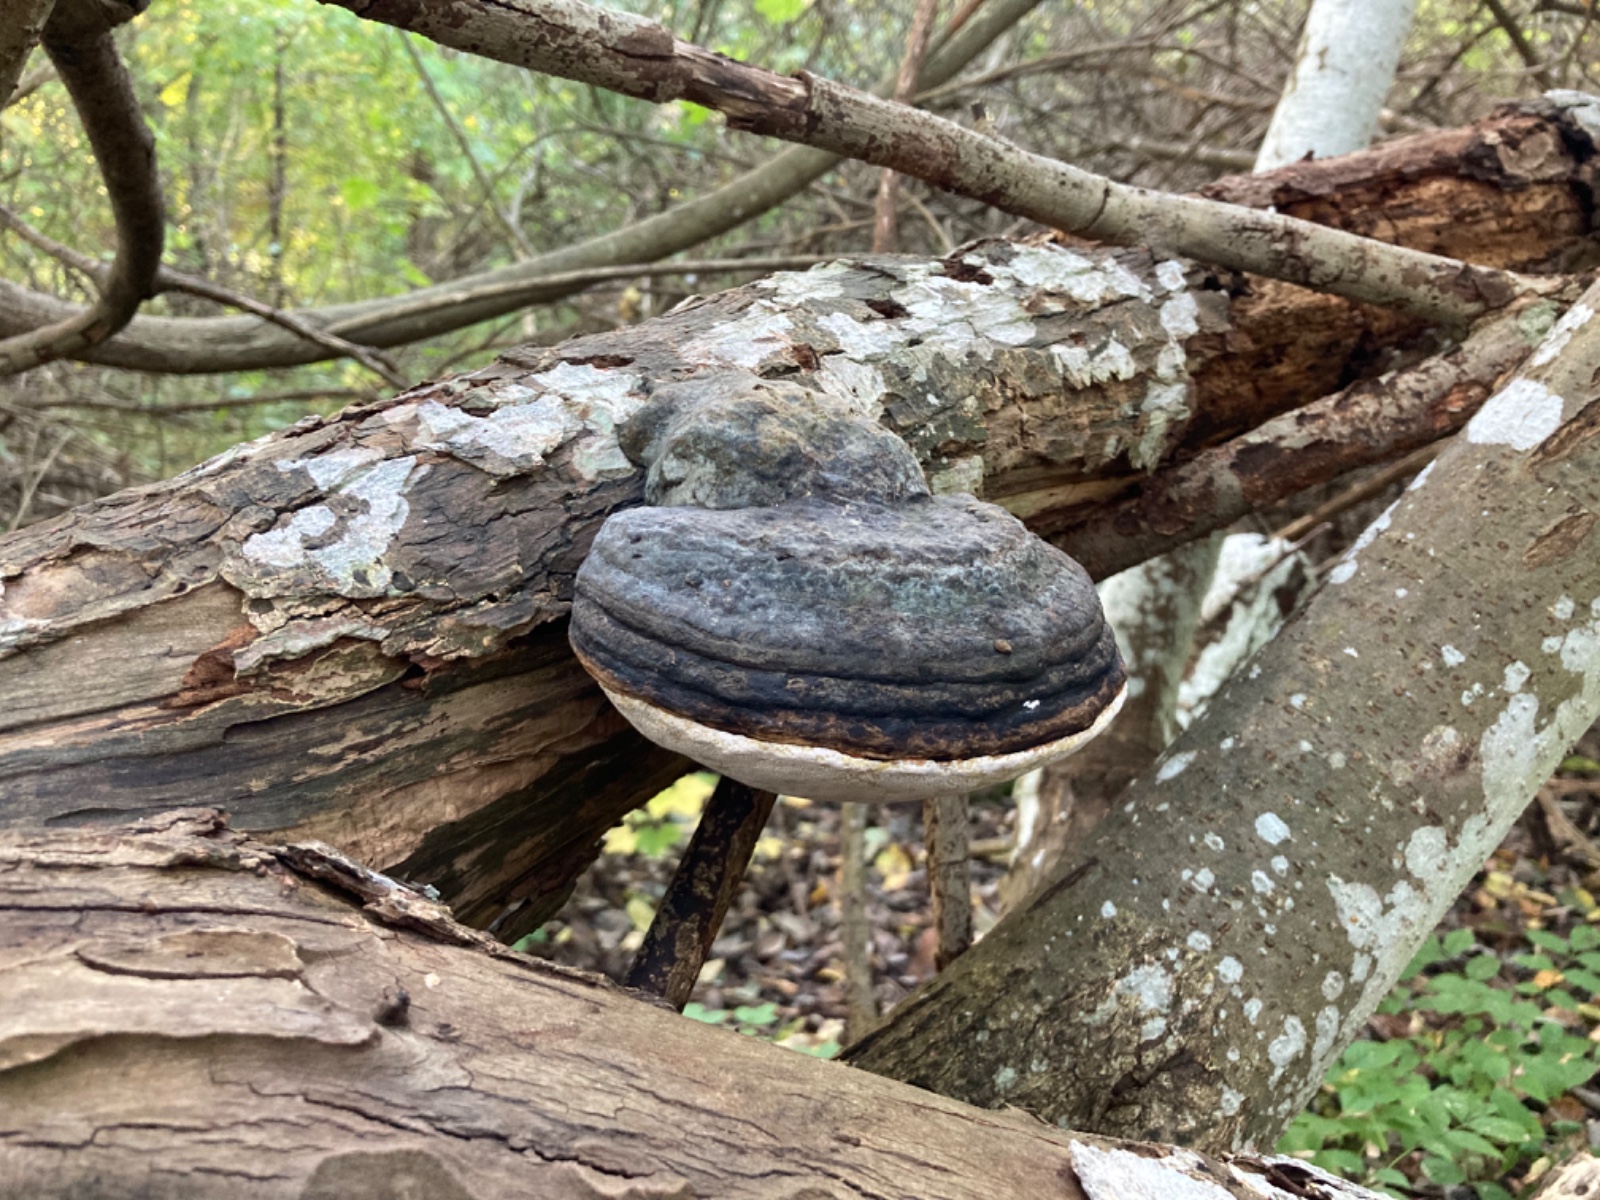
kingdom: Fungi
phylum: Basidiomycota
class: Agaricomycetes
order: Hymenochaetales
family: Hymenochaetaceae
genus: Phellinus
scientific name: Phellinus igniarius
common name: almindelig ildporesvamp
